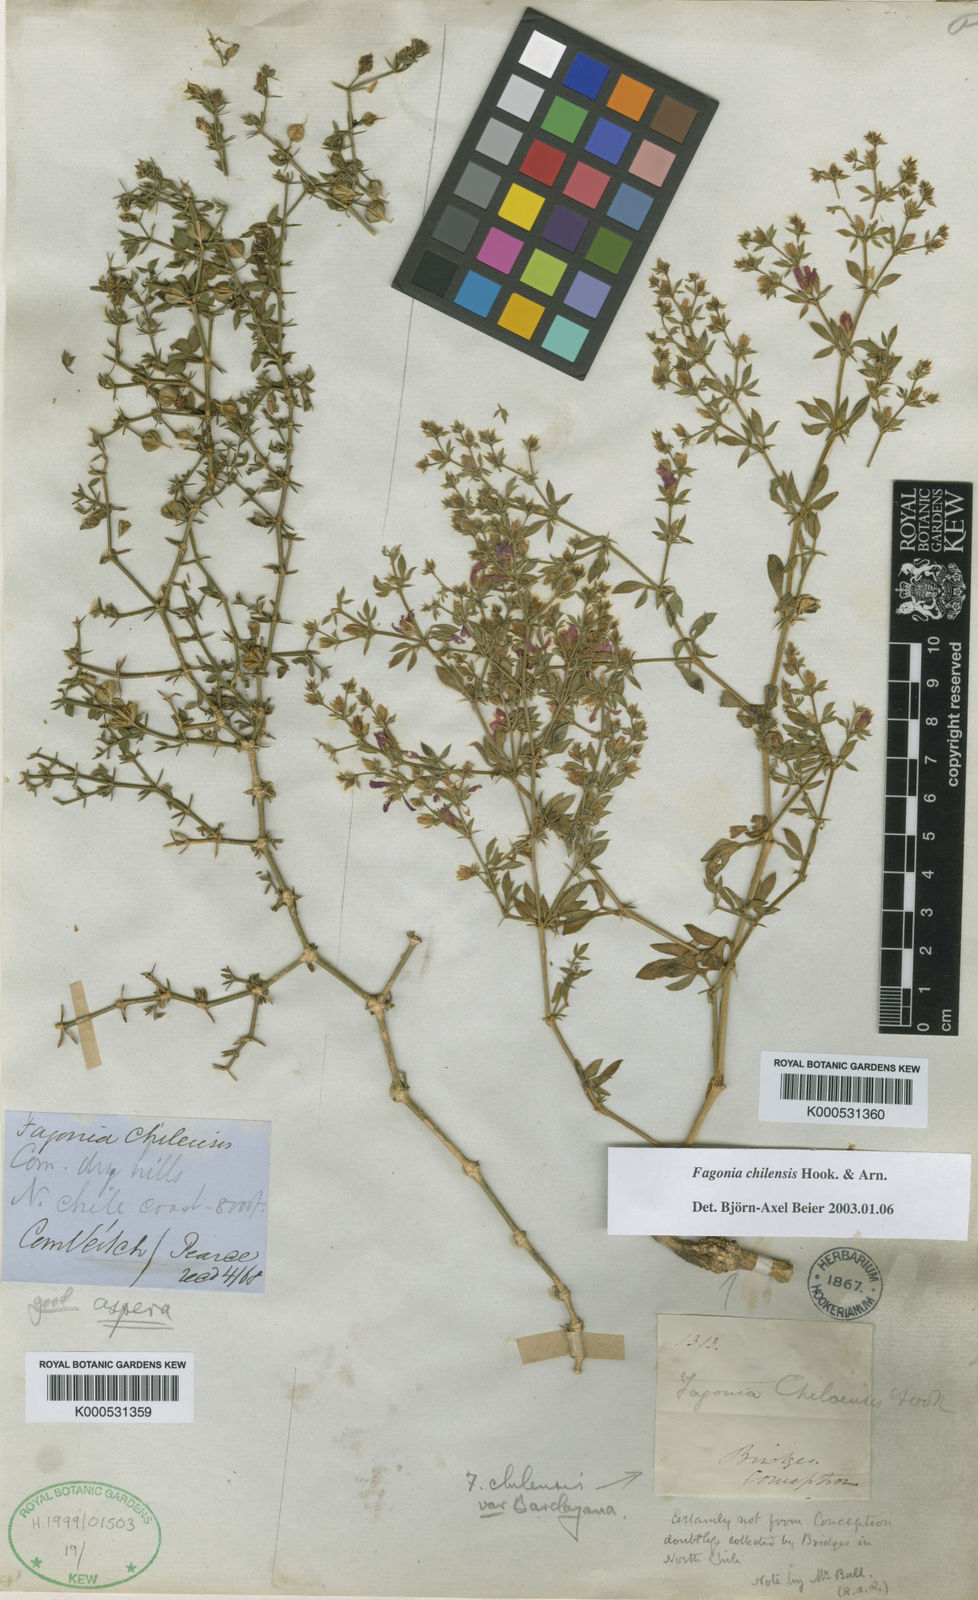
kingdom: Plantae
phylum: Tracheophyta
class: Magnoliopsida
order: Zygophyllales
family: Zygophyllaceae
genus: Fagonia
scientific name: Fagonia chilensis
